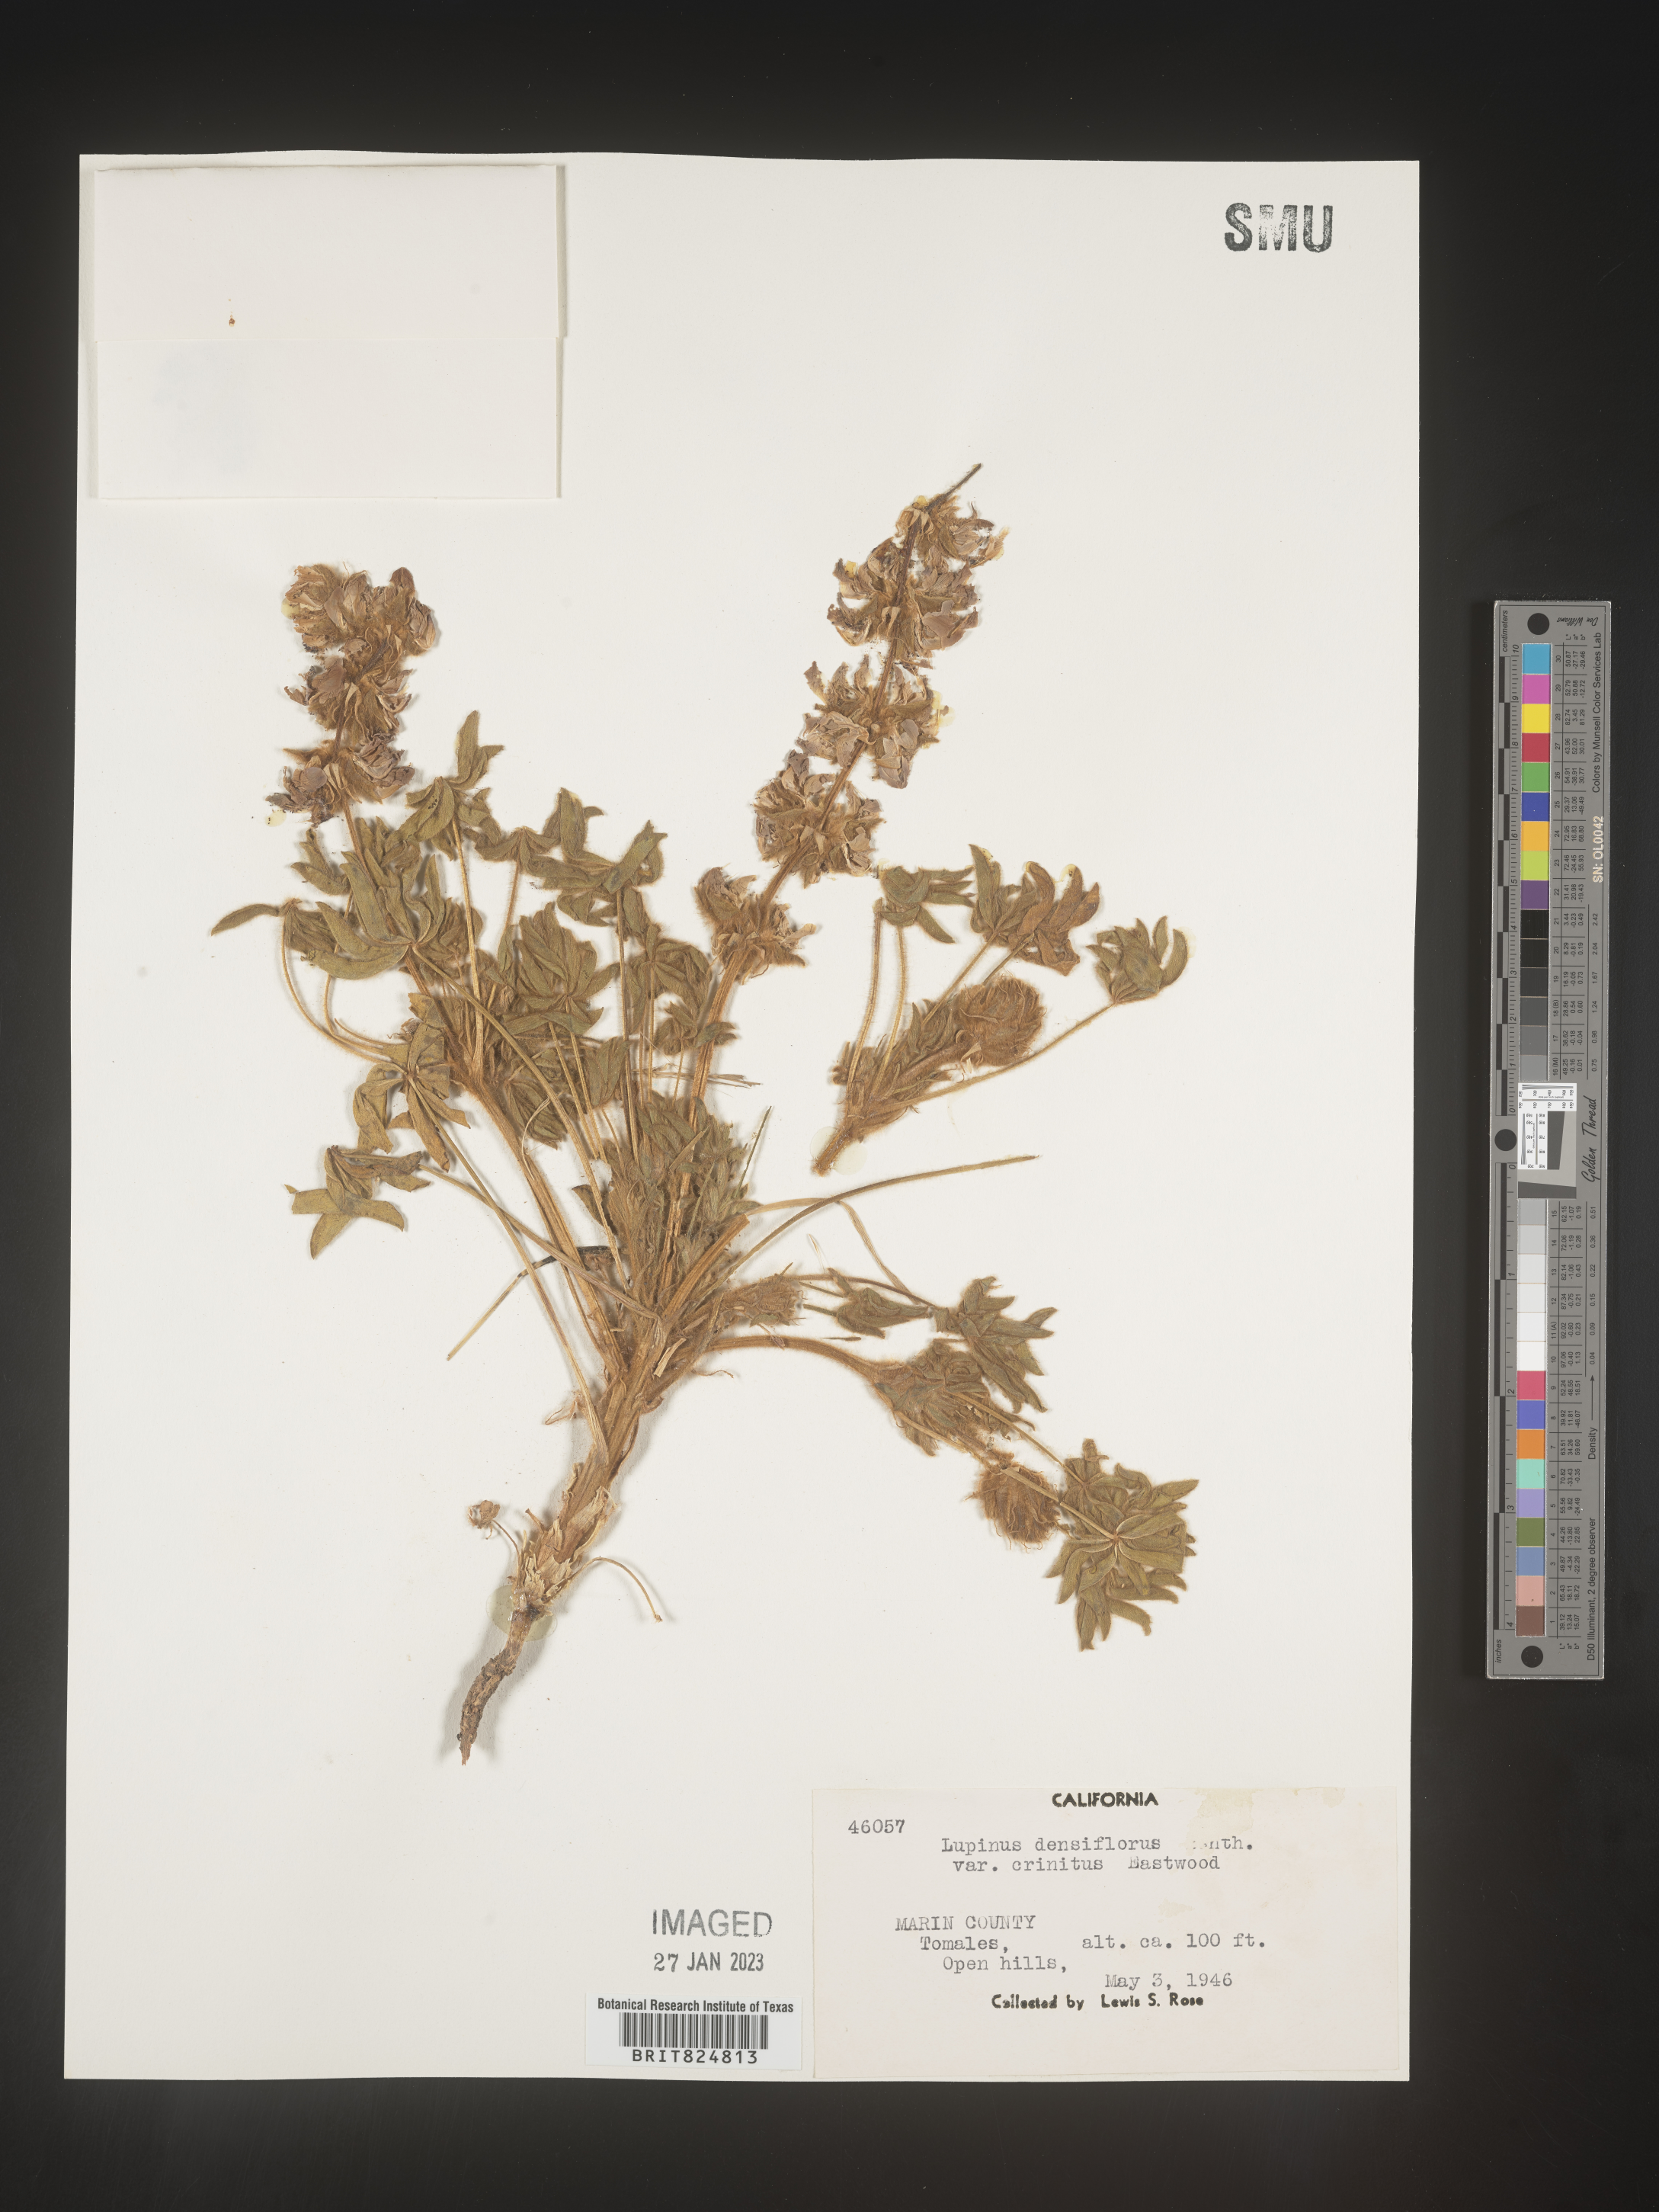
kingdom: Plantae
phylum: Tracheophyta
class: Magnoliopsida
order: Fabales
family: Fabaceae
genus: Lupinus
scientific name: Lupinus
